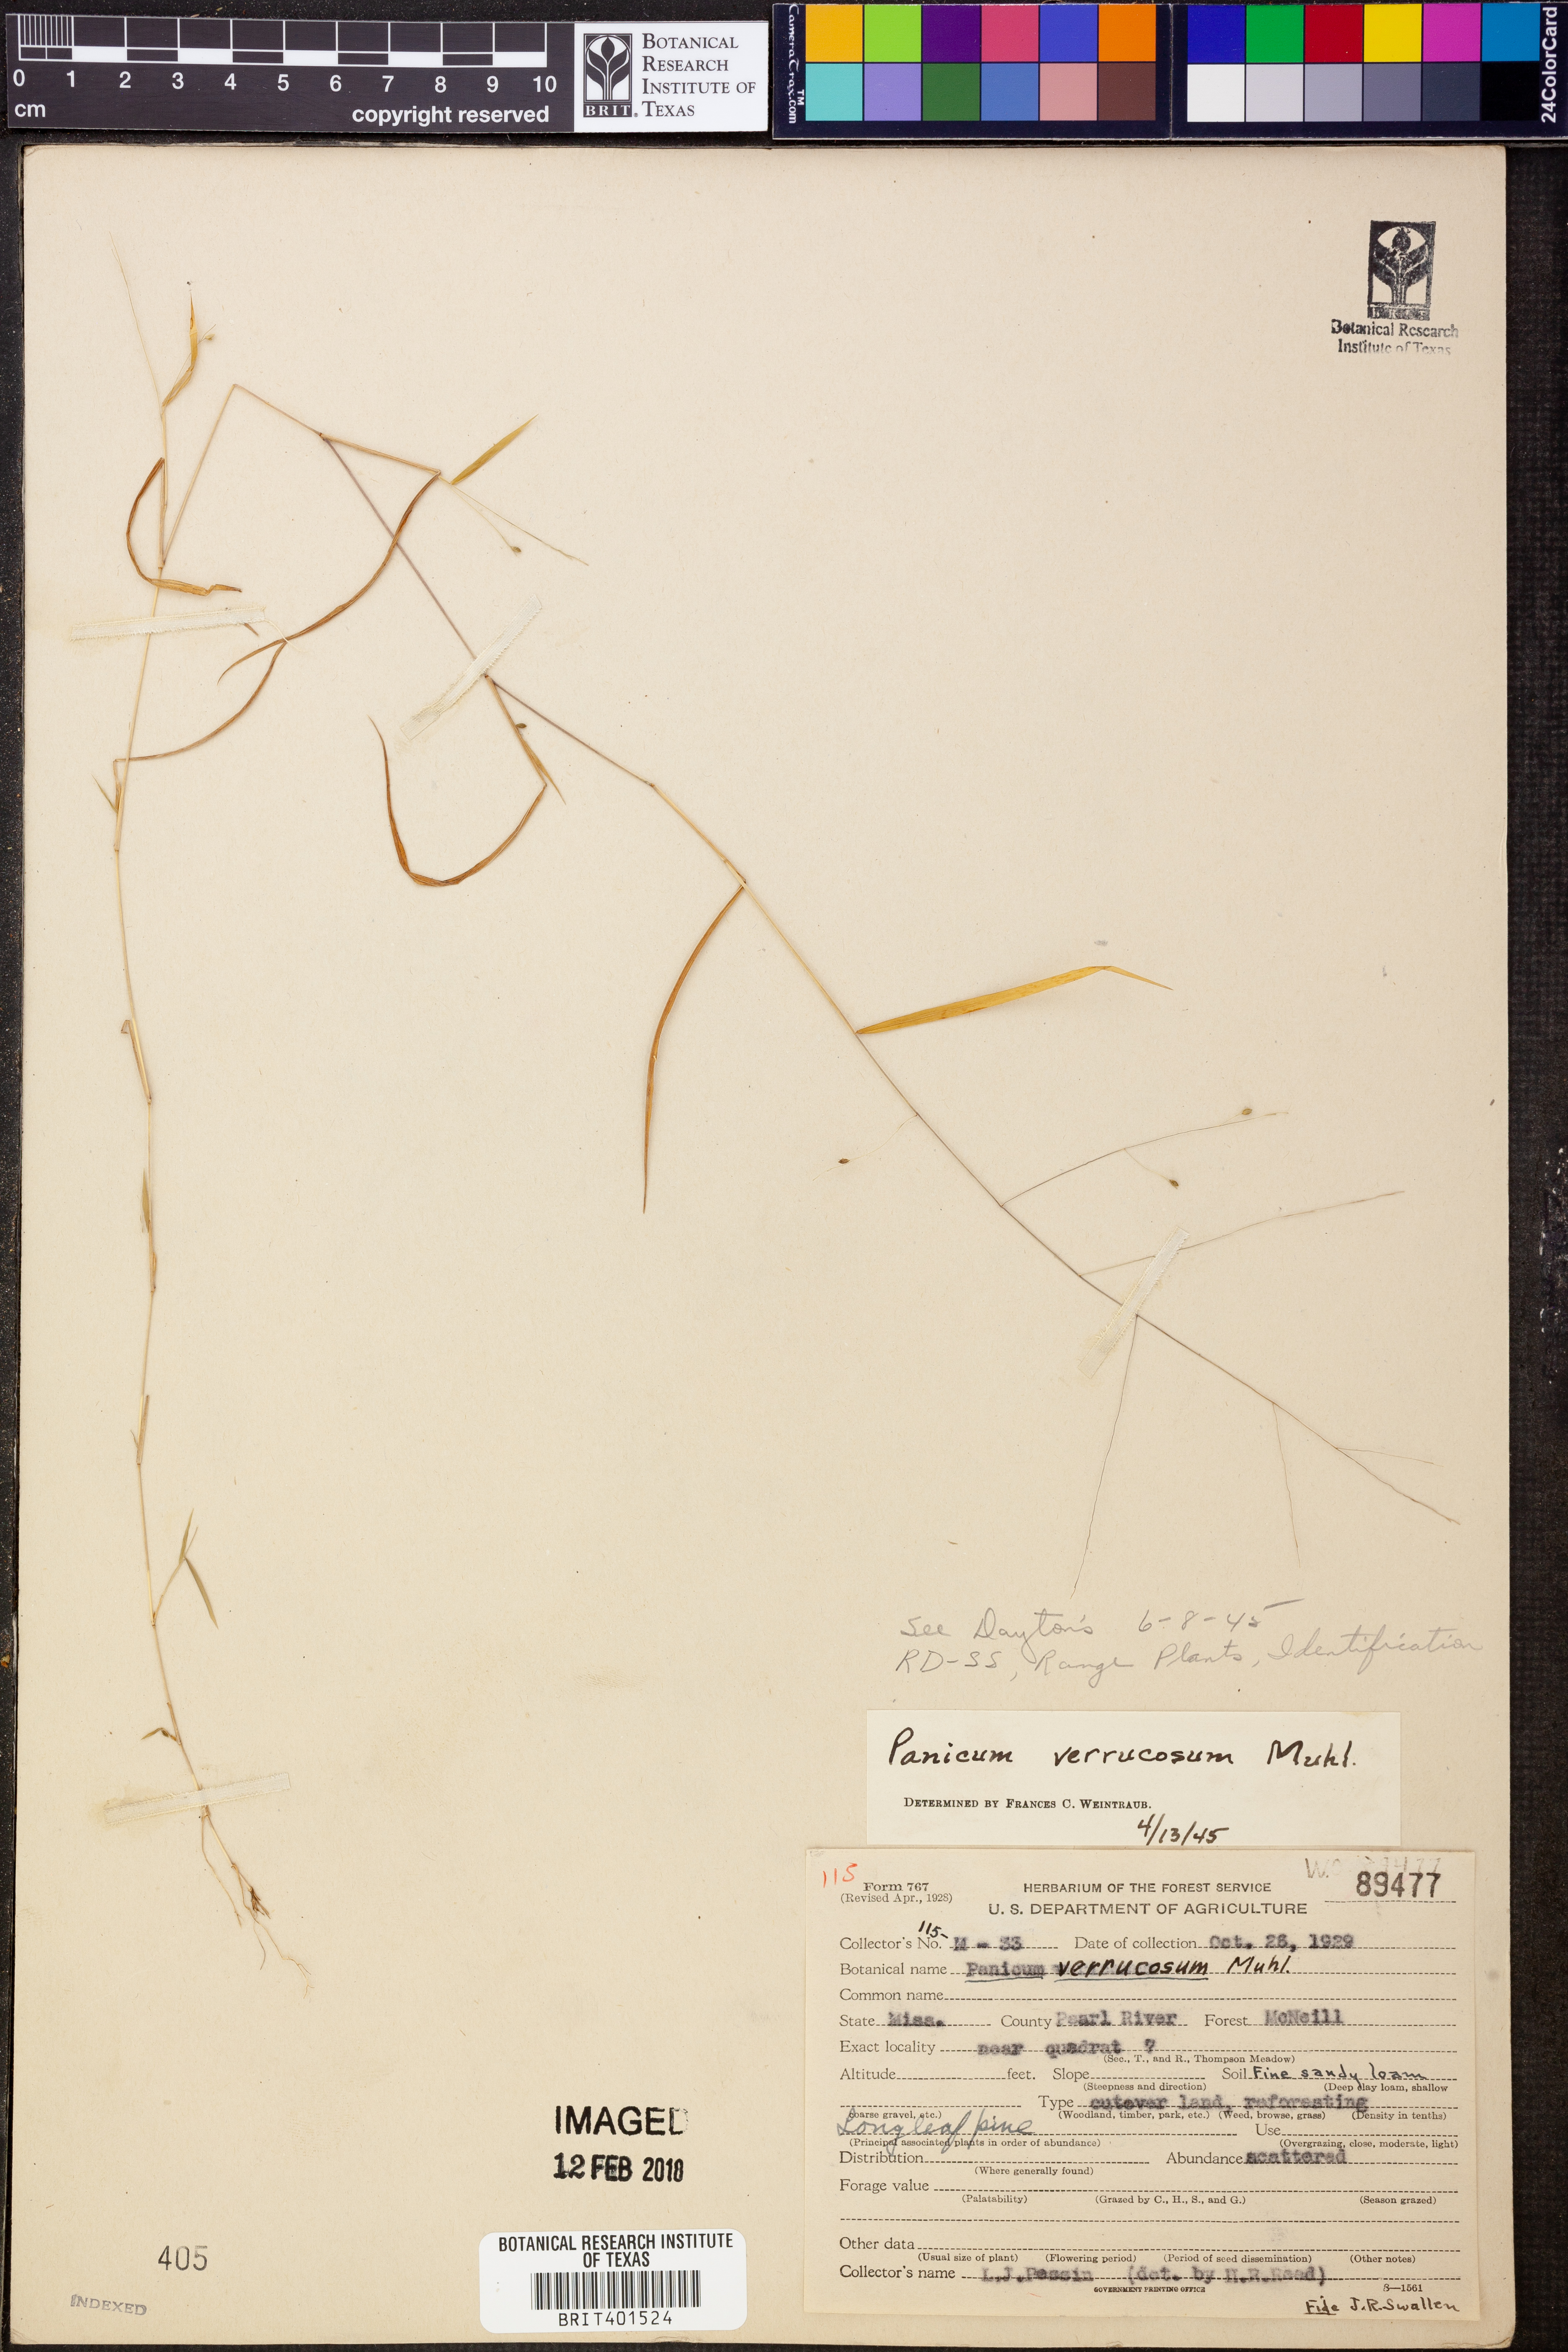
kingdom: Plantae
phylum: Tracheophyta
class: Liliopsida
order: Poales
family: Poaceae
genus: Kellochloa
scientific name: Kellochloa verrucosa
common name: Warty panic grass
